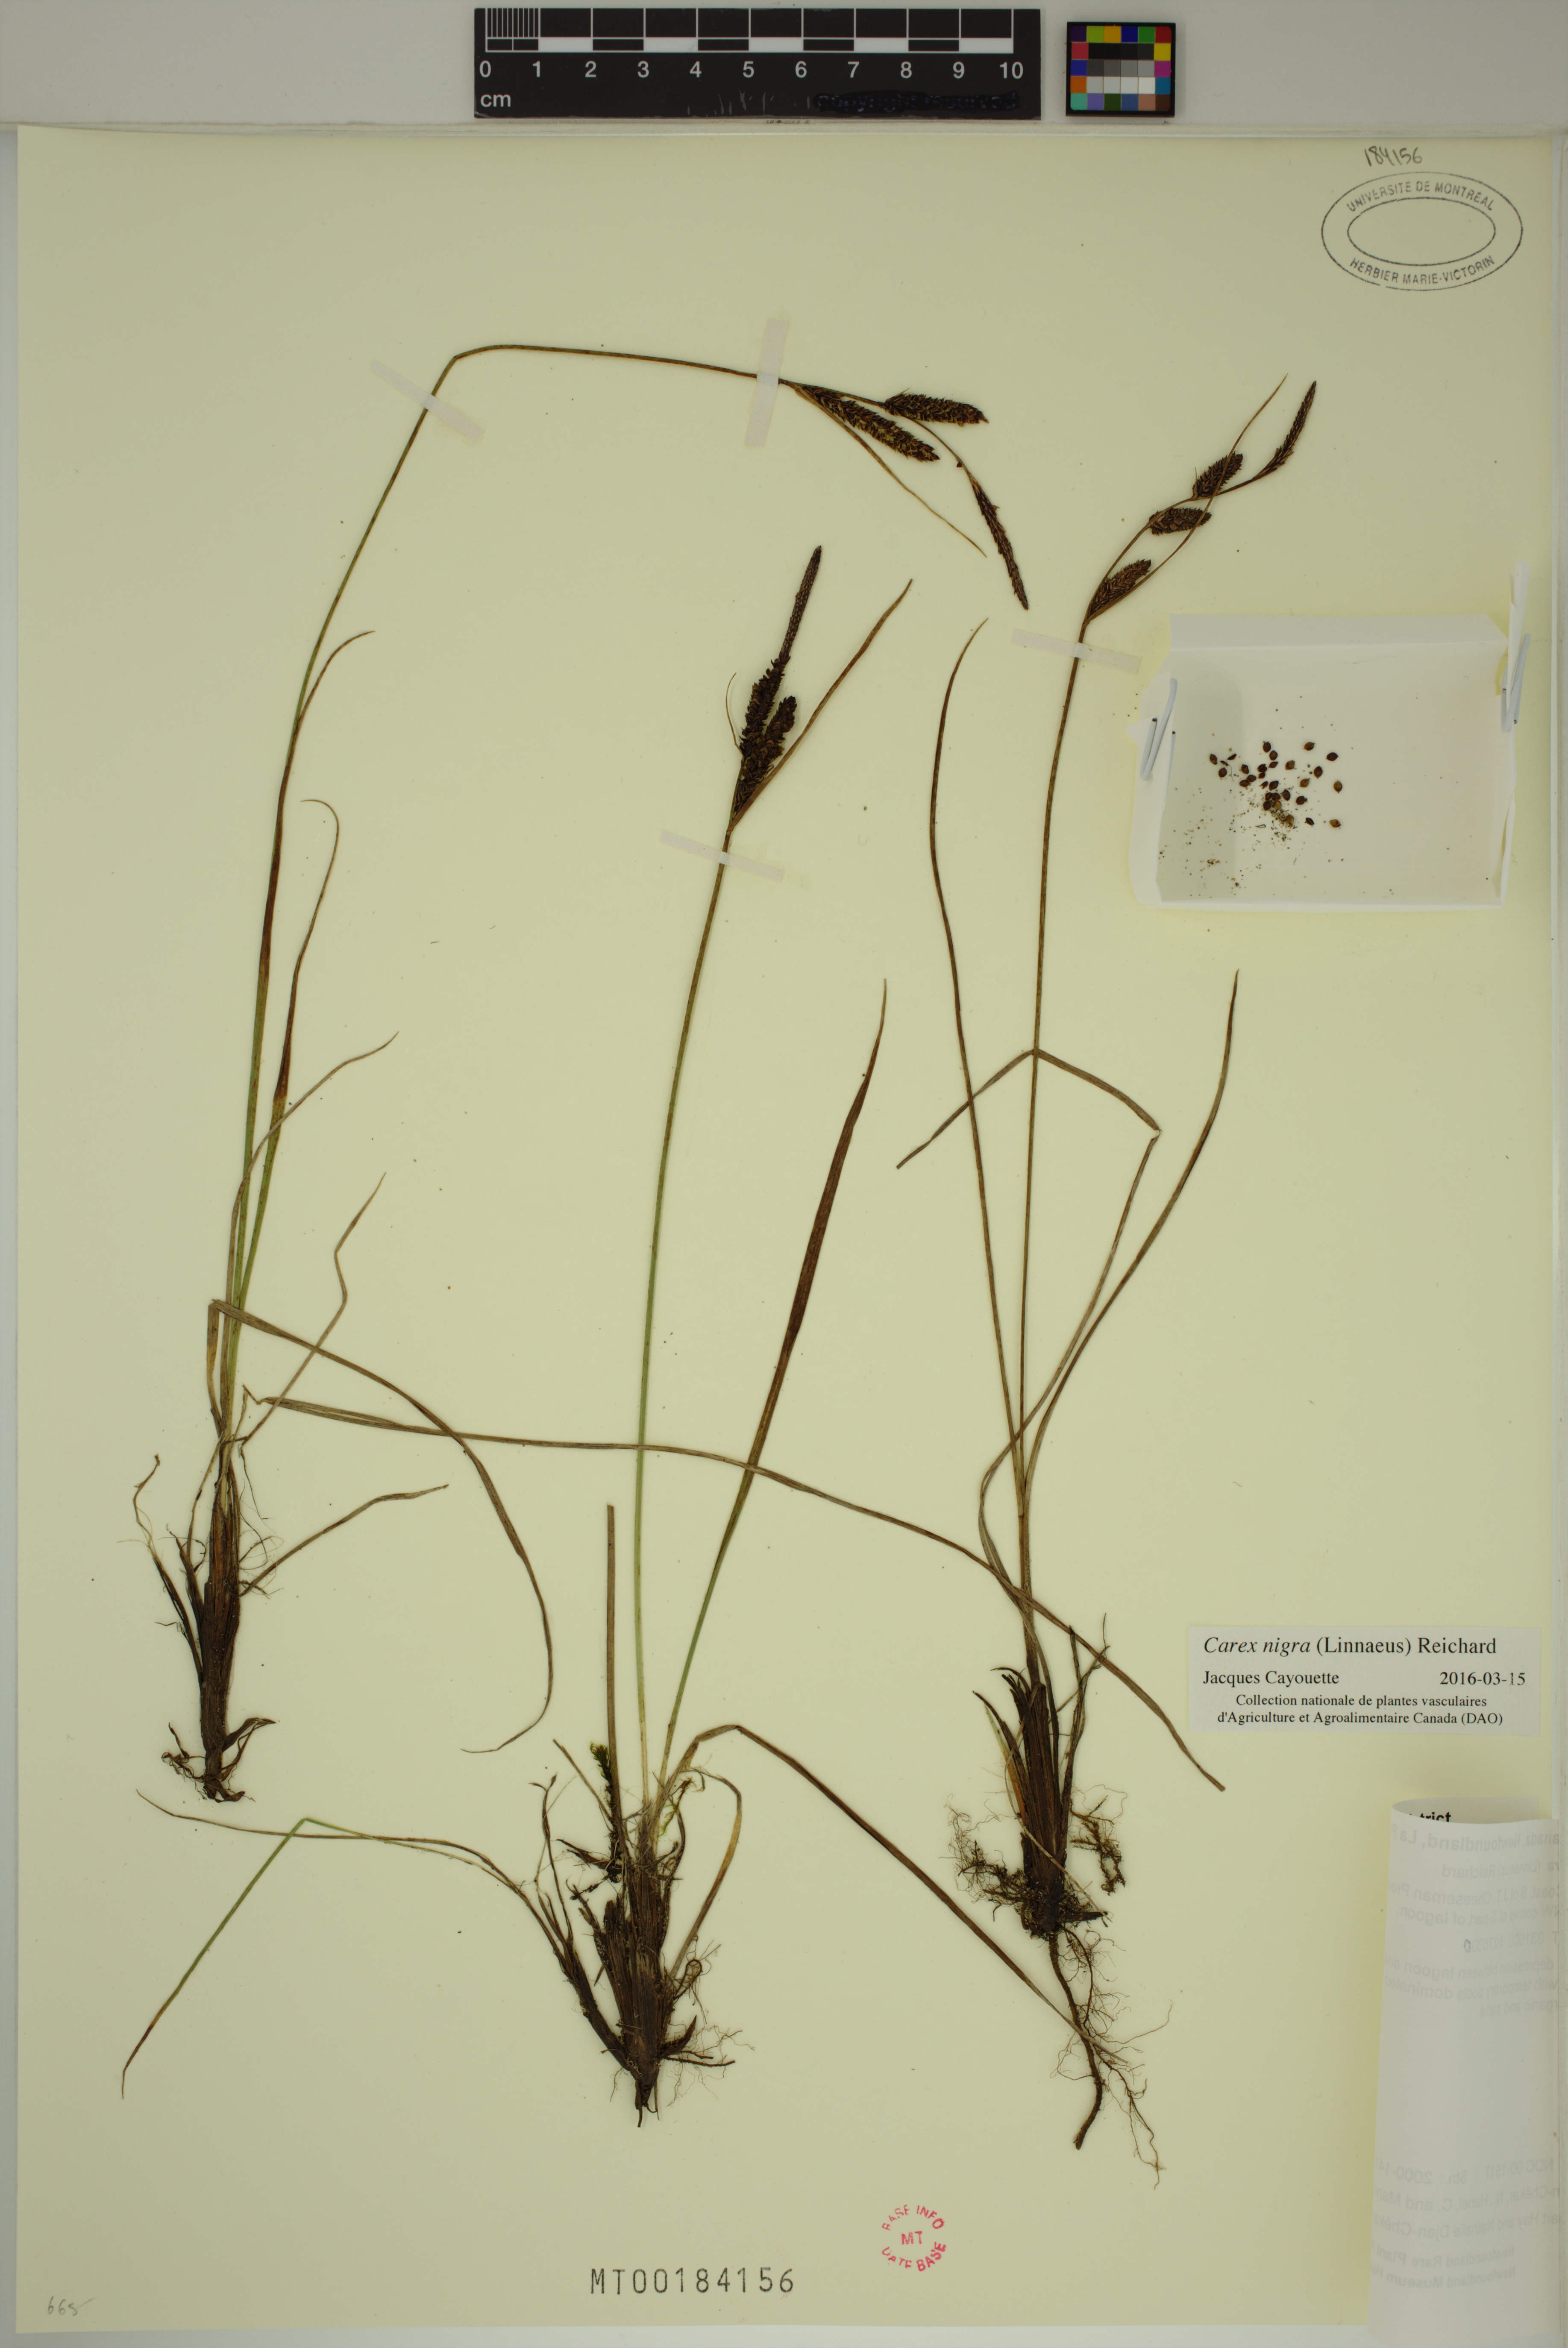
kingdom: Plantae
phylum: Tracheophyta
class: Liliopsida
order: Poales
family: Cyperaceae
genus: Carex
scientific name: Carex nigra
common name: Common sedge
